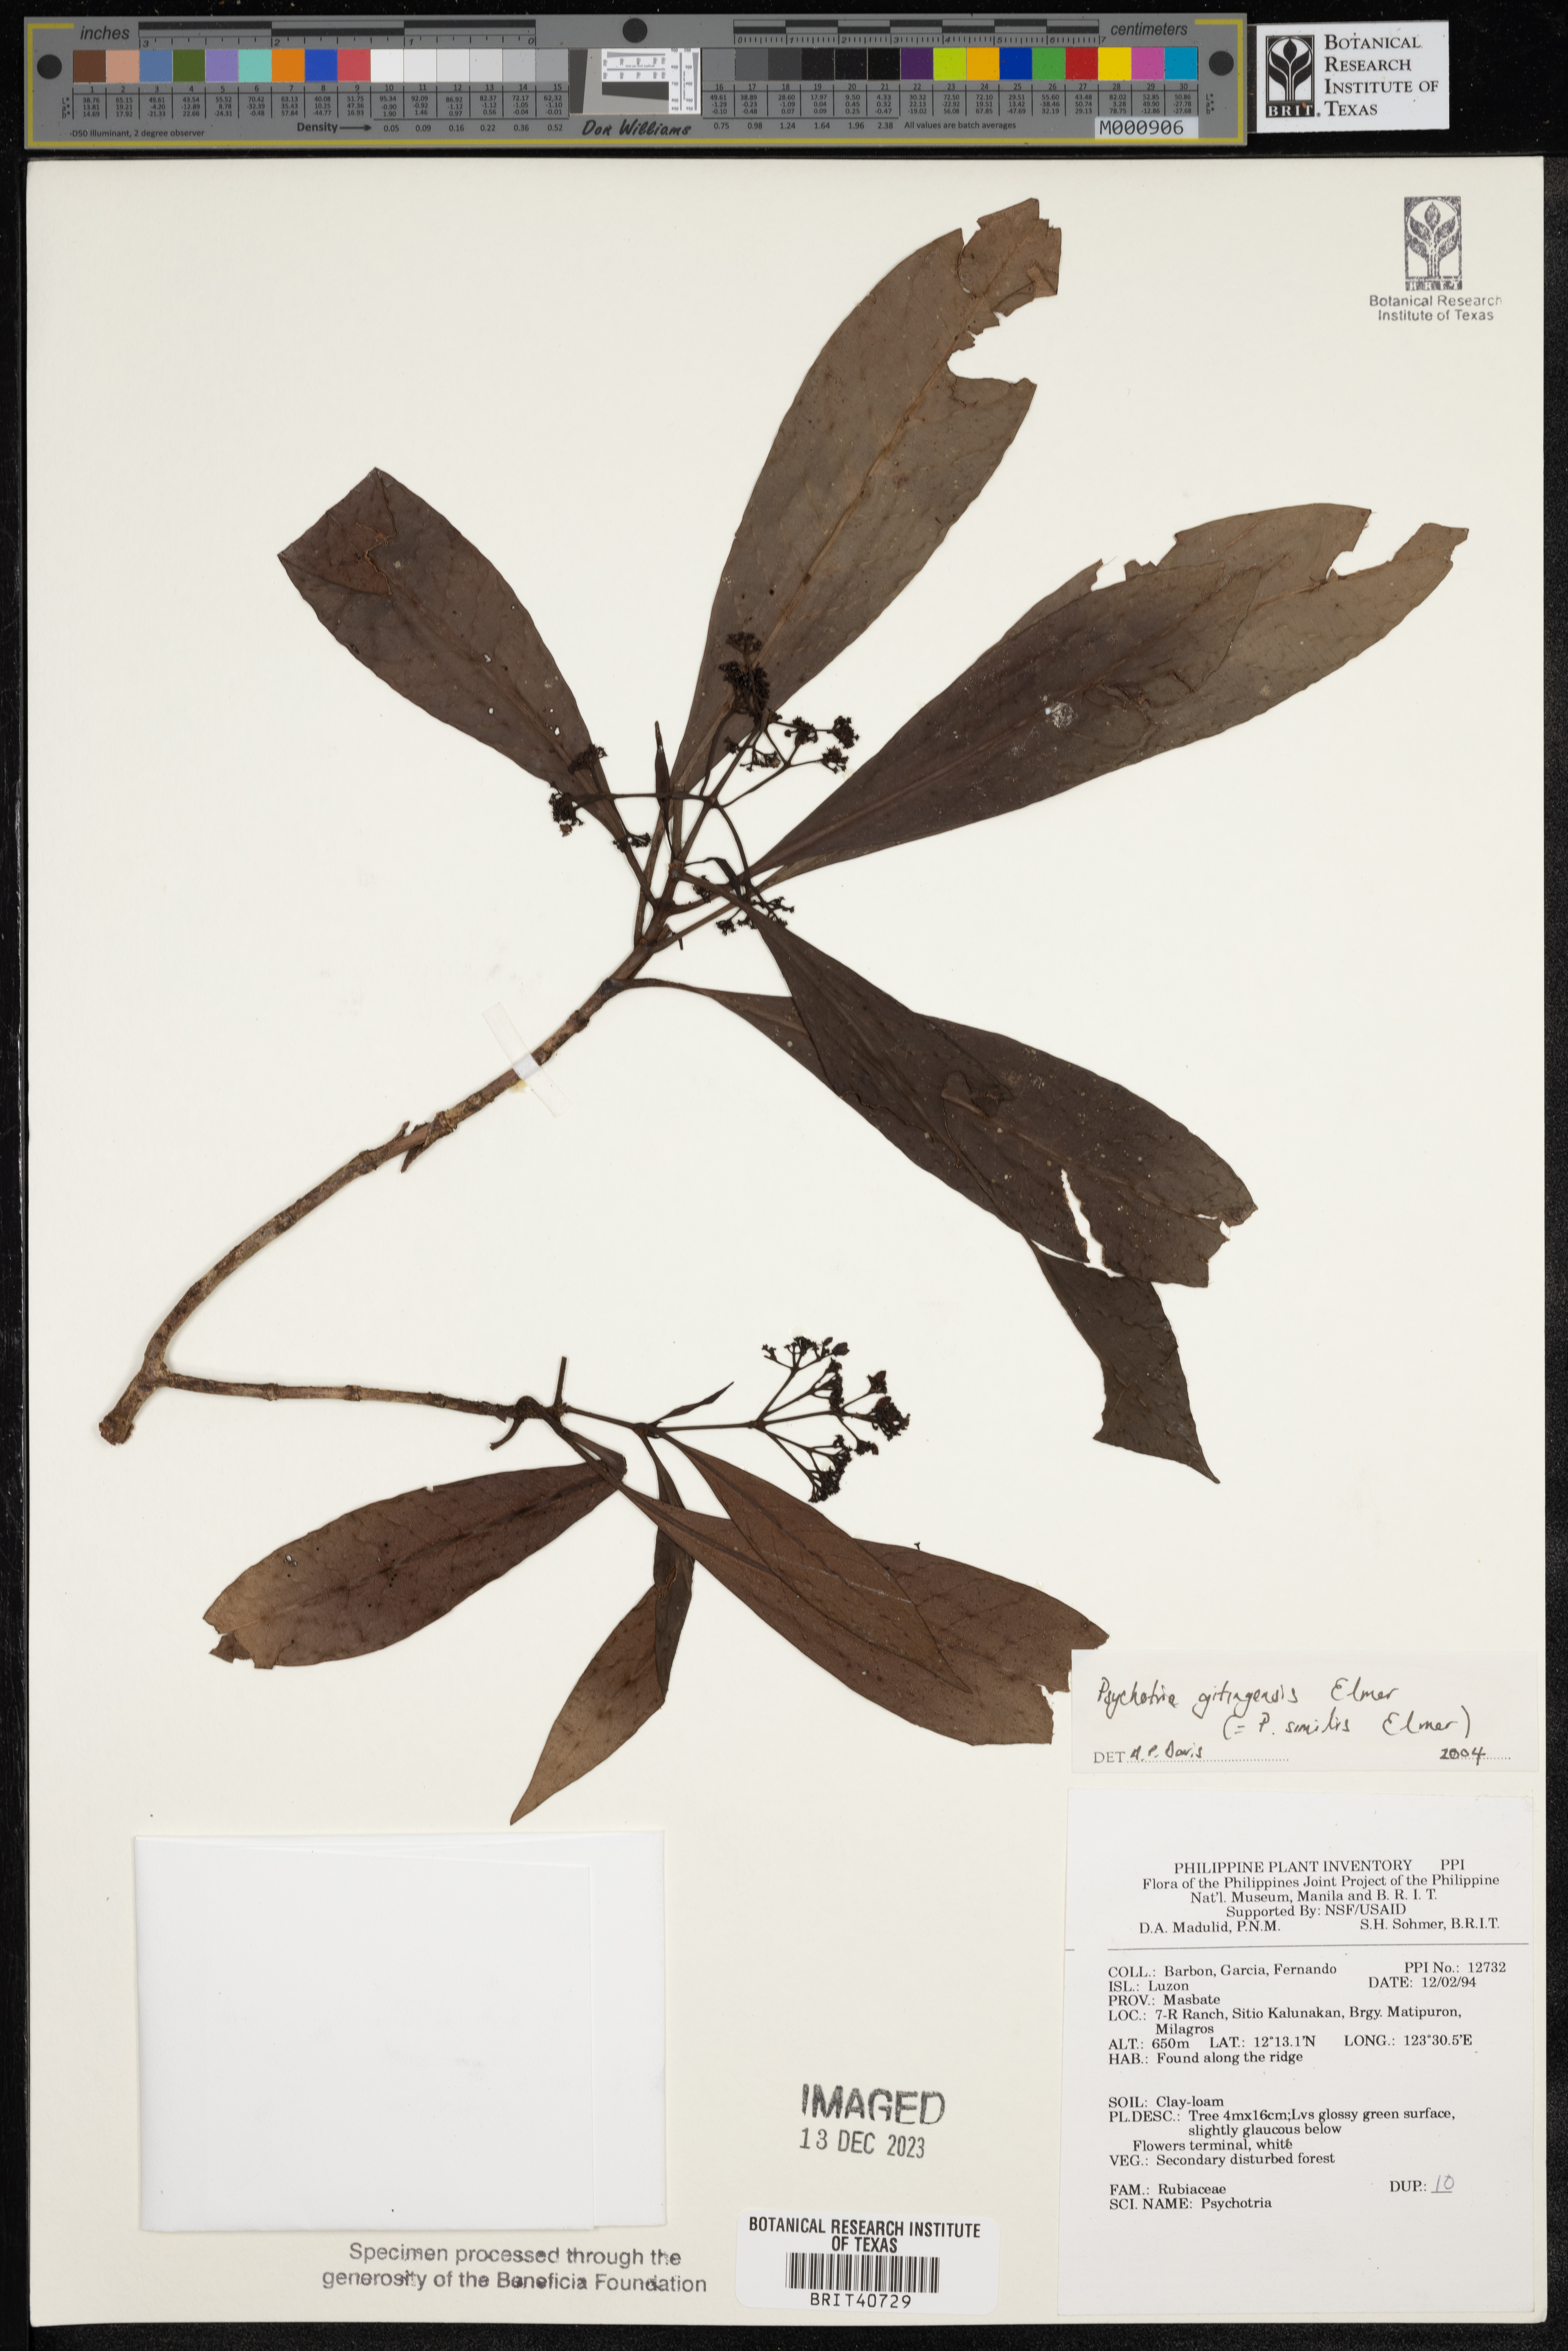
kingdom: Plantae
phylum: Tracheophyta
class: Magnoliopsida
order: Gentianales
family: Rubiaceae
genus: Psychotria
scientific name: Psychotria gitingensis
